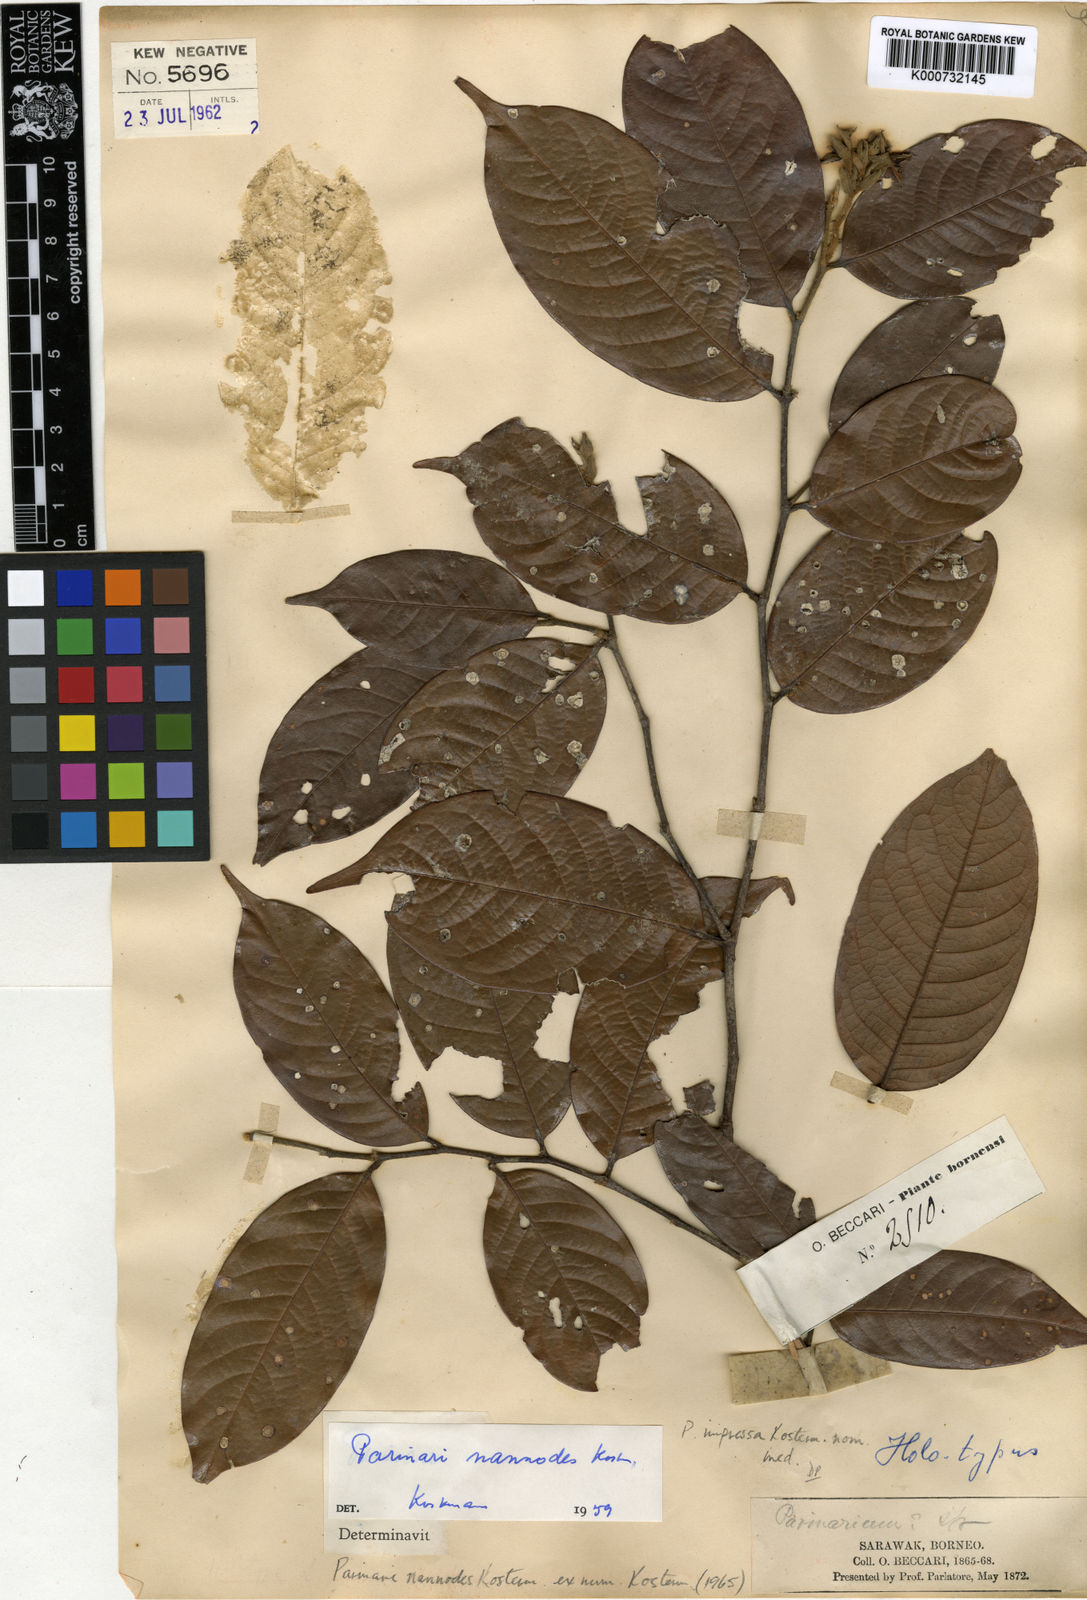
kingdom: Plantae
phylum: Tracheophyta
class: Magnoliopsida
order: Malpighiales
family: Chrysobalanaceae
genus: Atuna
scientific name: Atuna nannodes
